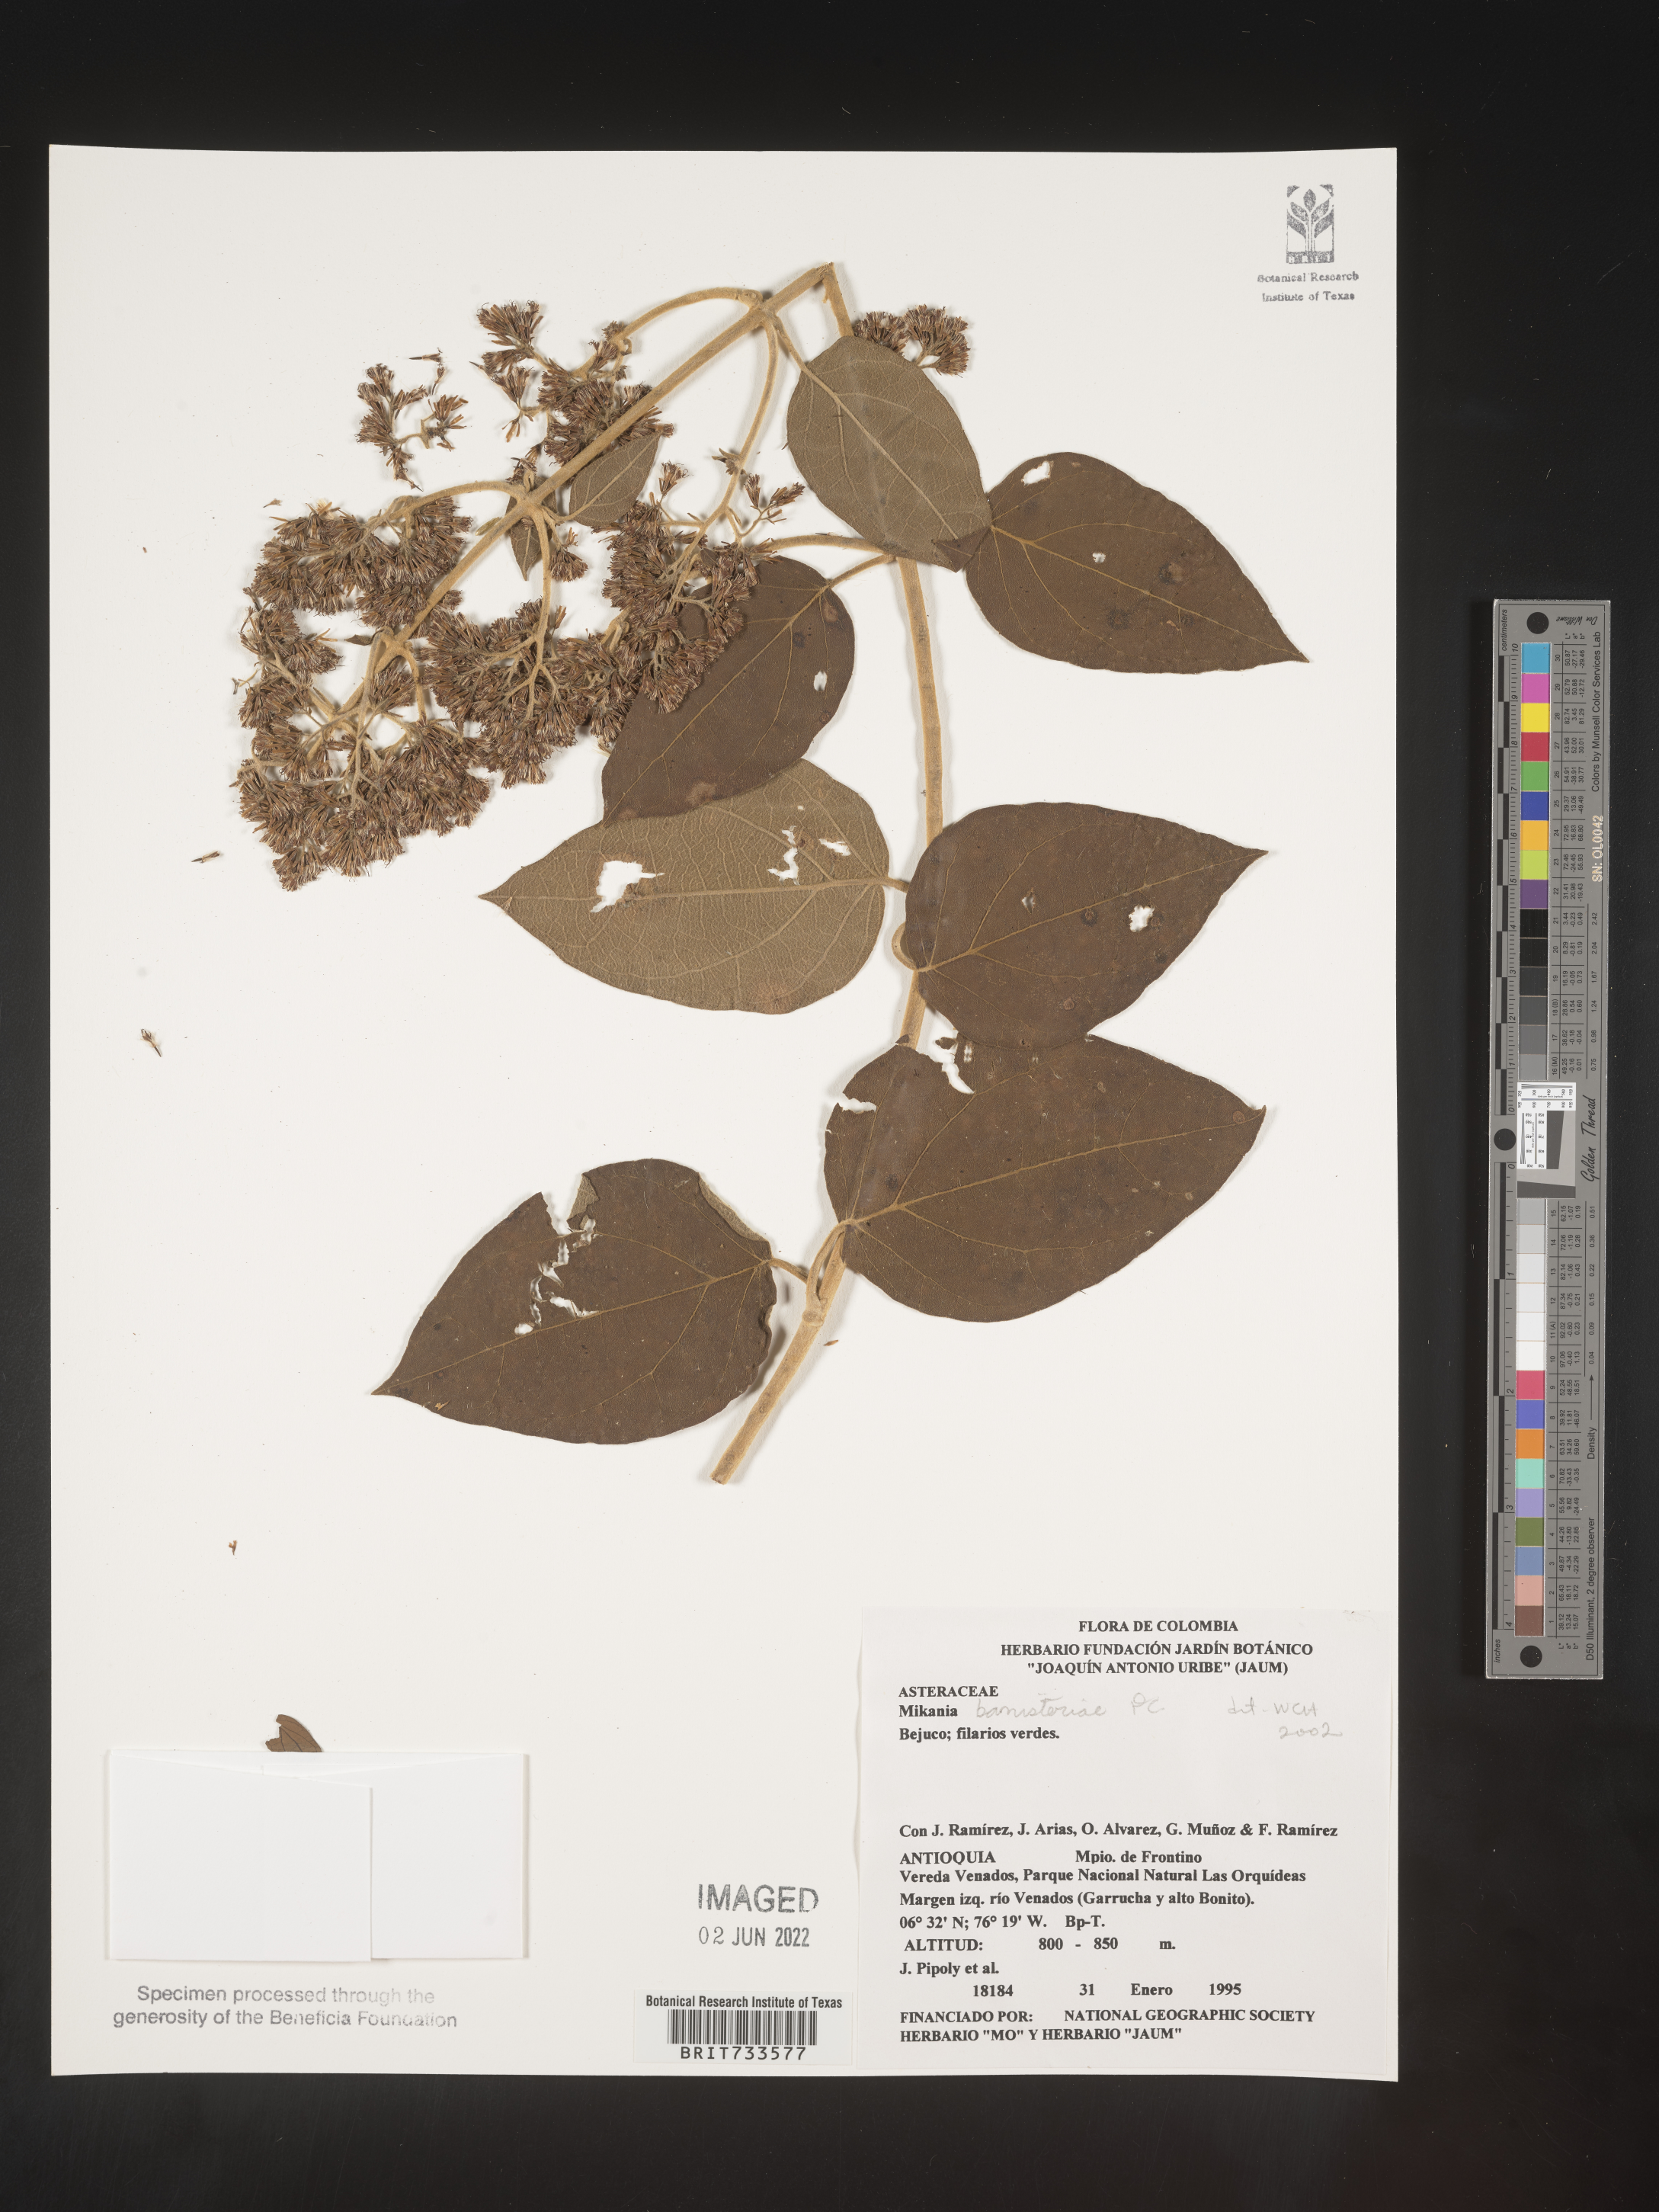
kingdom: Plantae
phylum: Tracheophyta
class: Magnoliopsida
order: Asterales
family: Asteraceae
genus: Mikania
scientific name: Mikania
